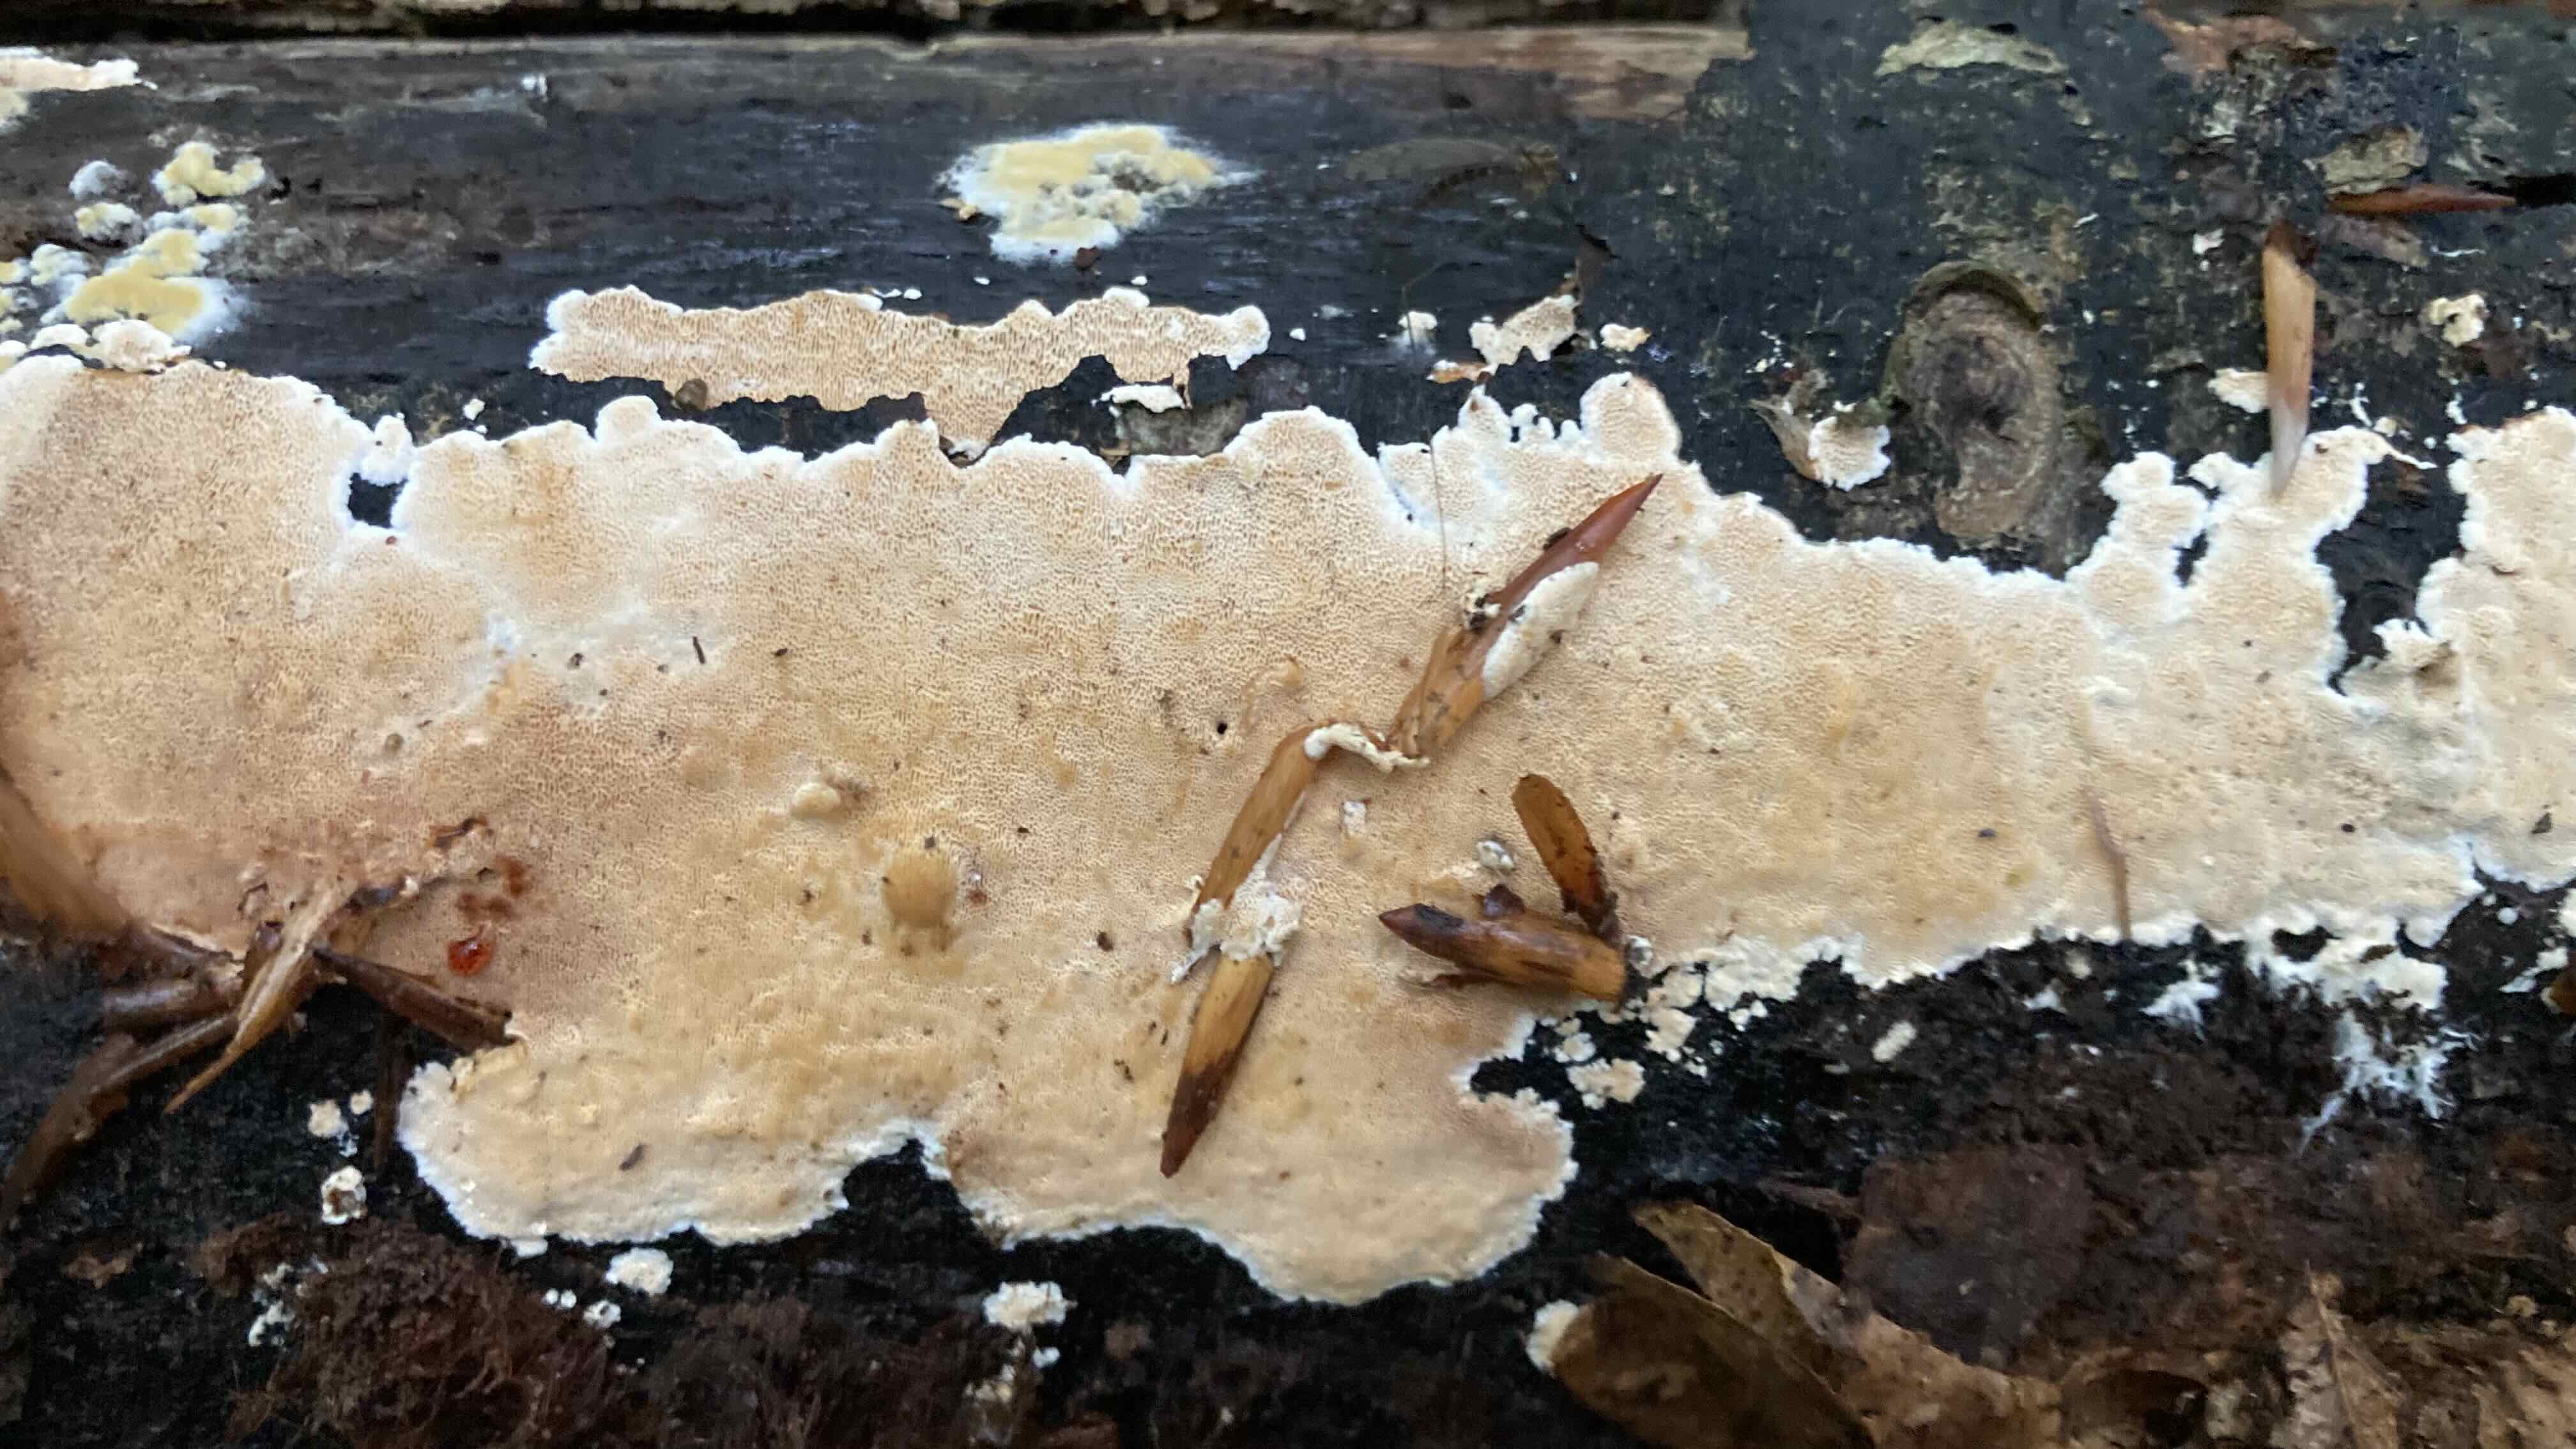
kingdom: Fungi
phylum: Basidiomycota
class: Agaricomycetes
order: Polyporales
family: Steccherinaceae
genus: Junghuhnia
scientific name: Junghuhnia
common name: skønporesvamp
